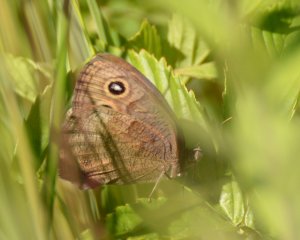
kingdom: Animalia
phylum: Arthropoda
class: Insecta
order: Lepidoptera
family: Nymphalidae
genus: Cercyonis
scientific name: Cercyonis pegala
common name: Common Wood-Nymph
